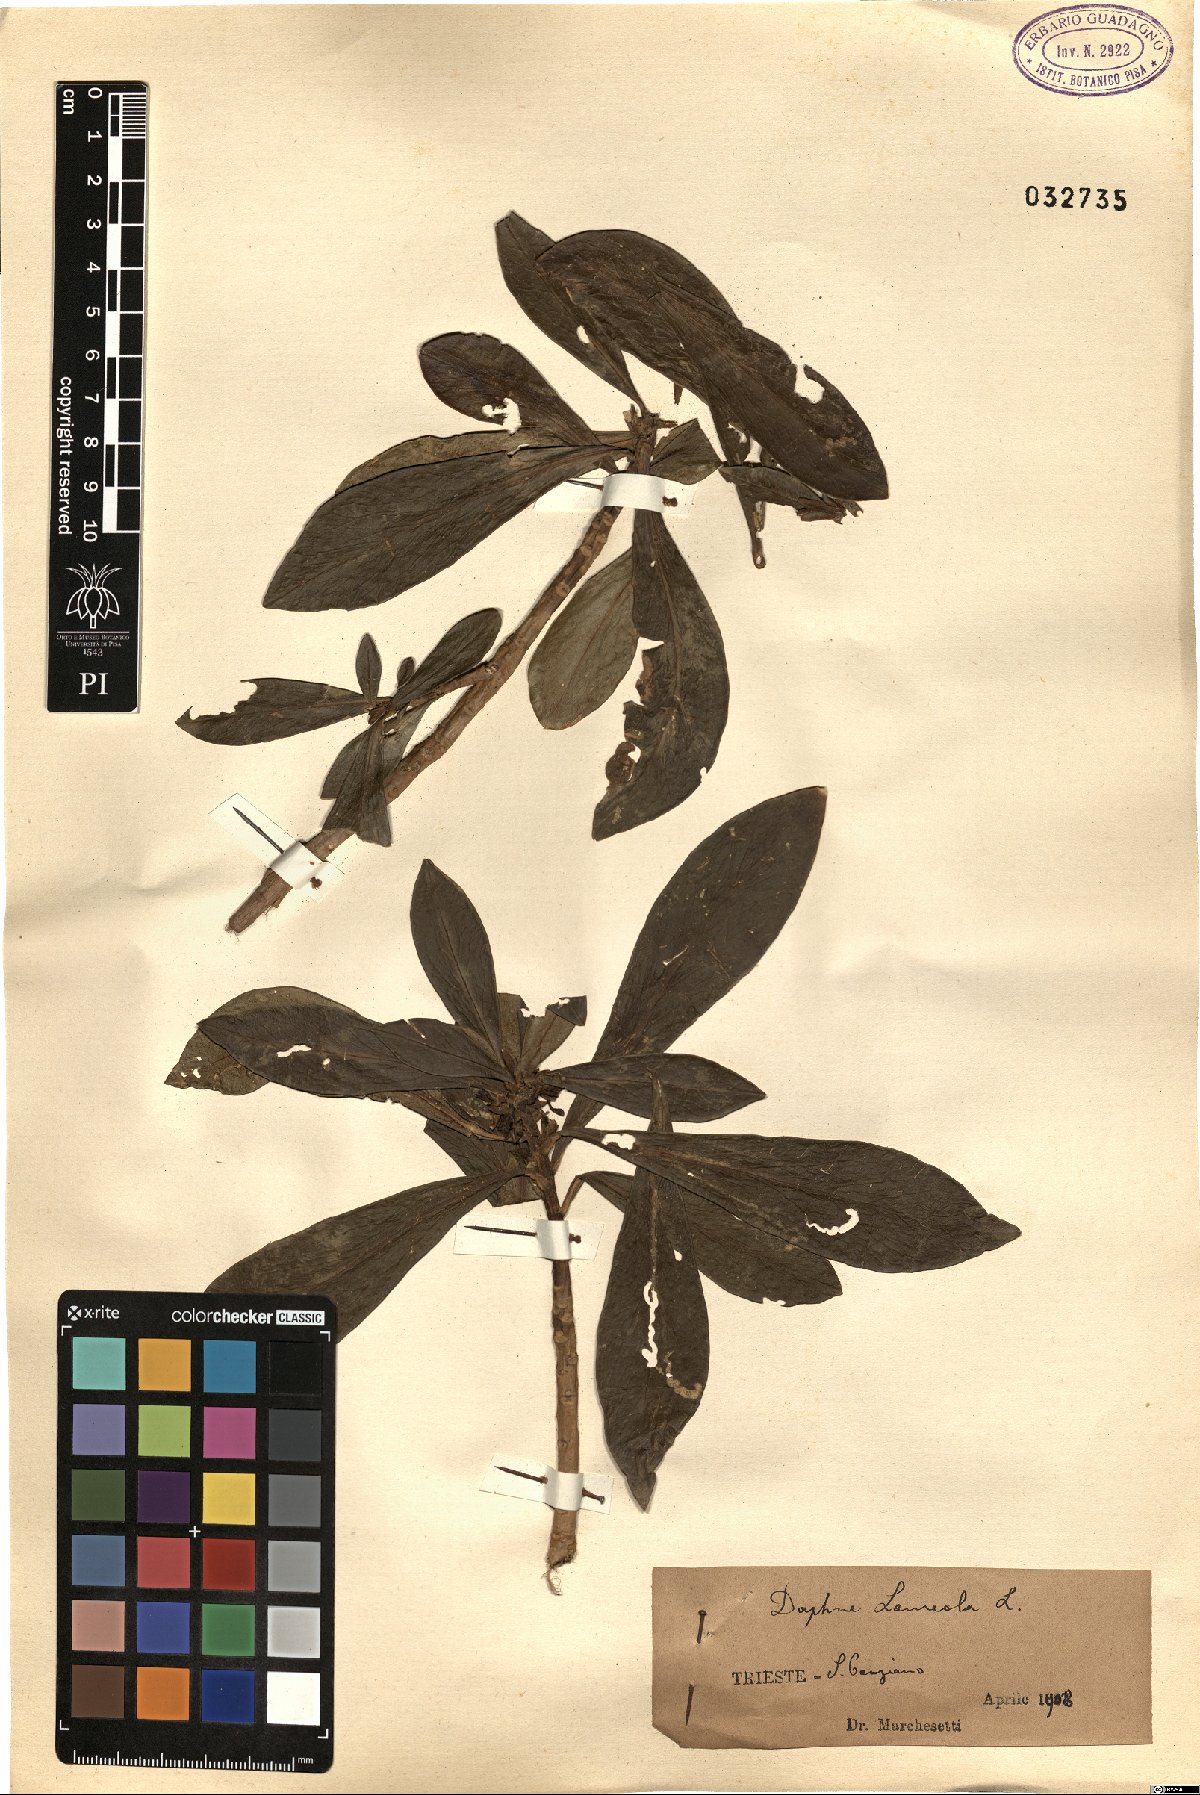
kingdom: Plantae
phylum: Tracheophyta
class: Magnoliopsida
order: Malvales
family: Thymelaeaceae
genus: Daphne
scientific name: Daphne laureola
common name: Spurge-laurel
